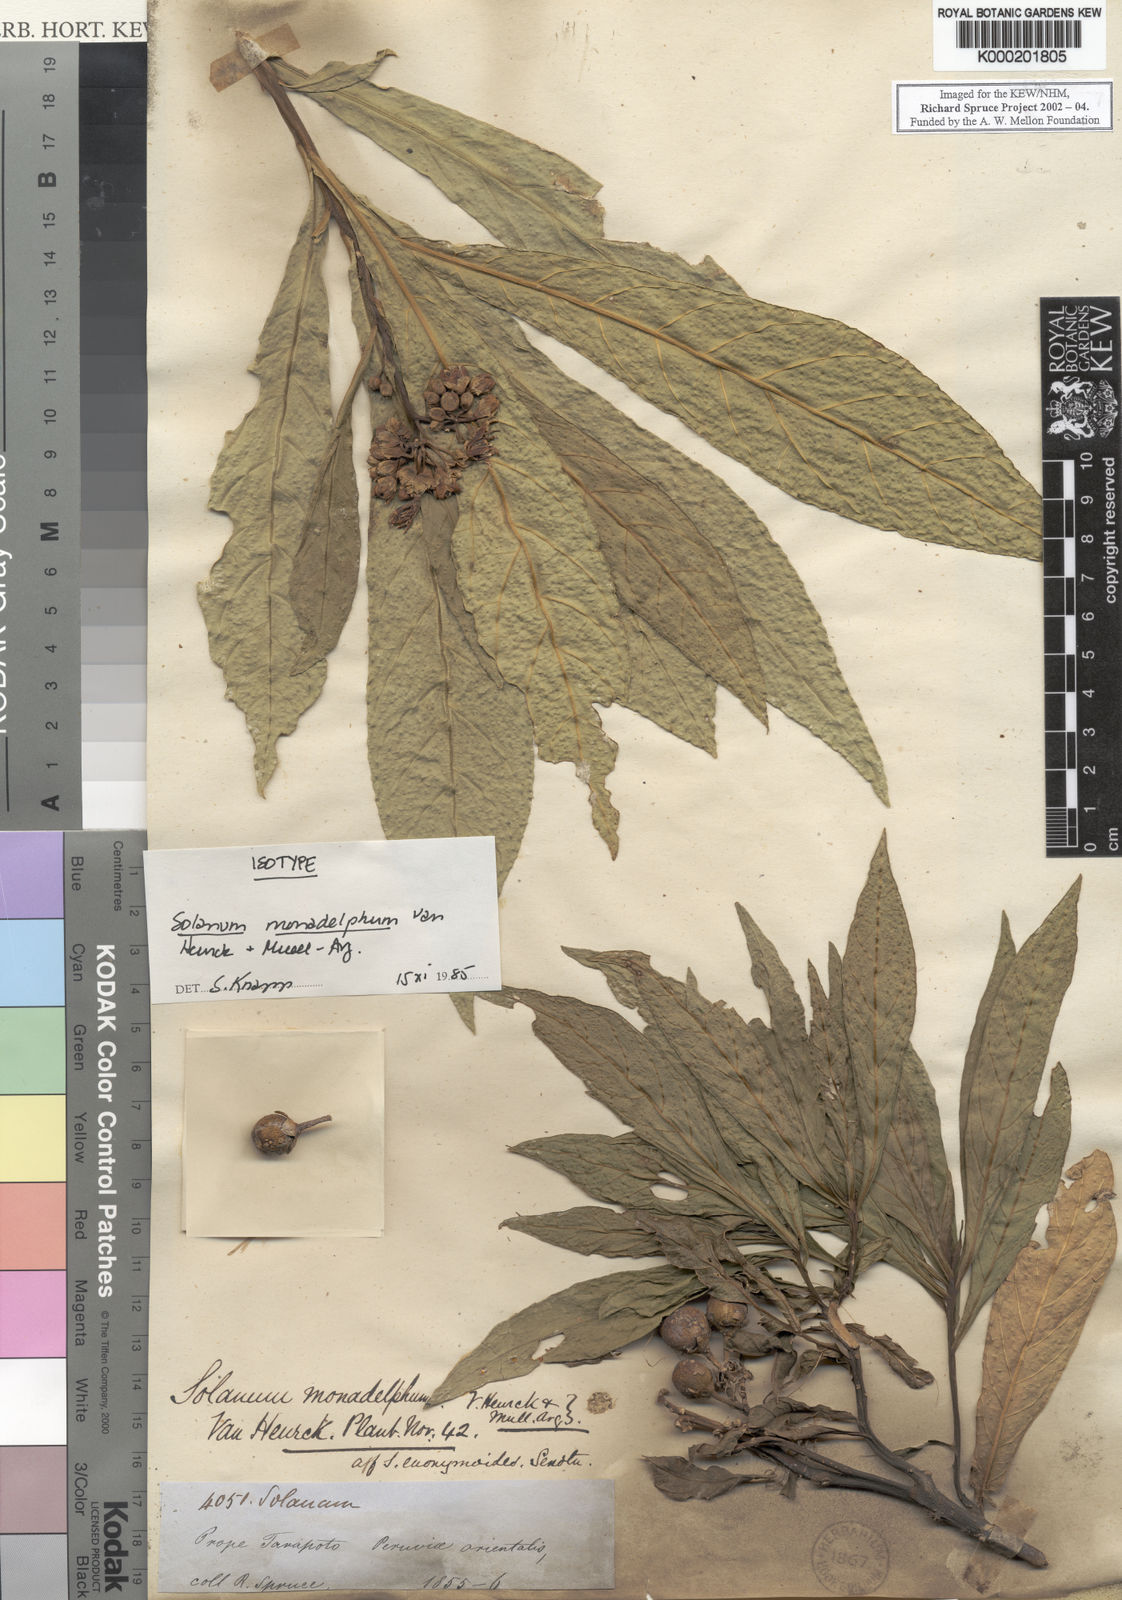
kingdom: Plantae
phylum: Tracheophyta
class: Magnoliopsida
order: Solanales
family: Solanaceae
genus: Solanum
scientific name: Solanum
